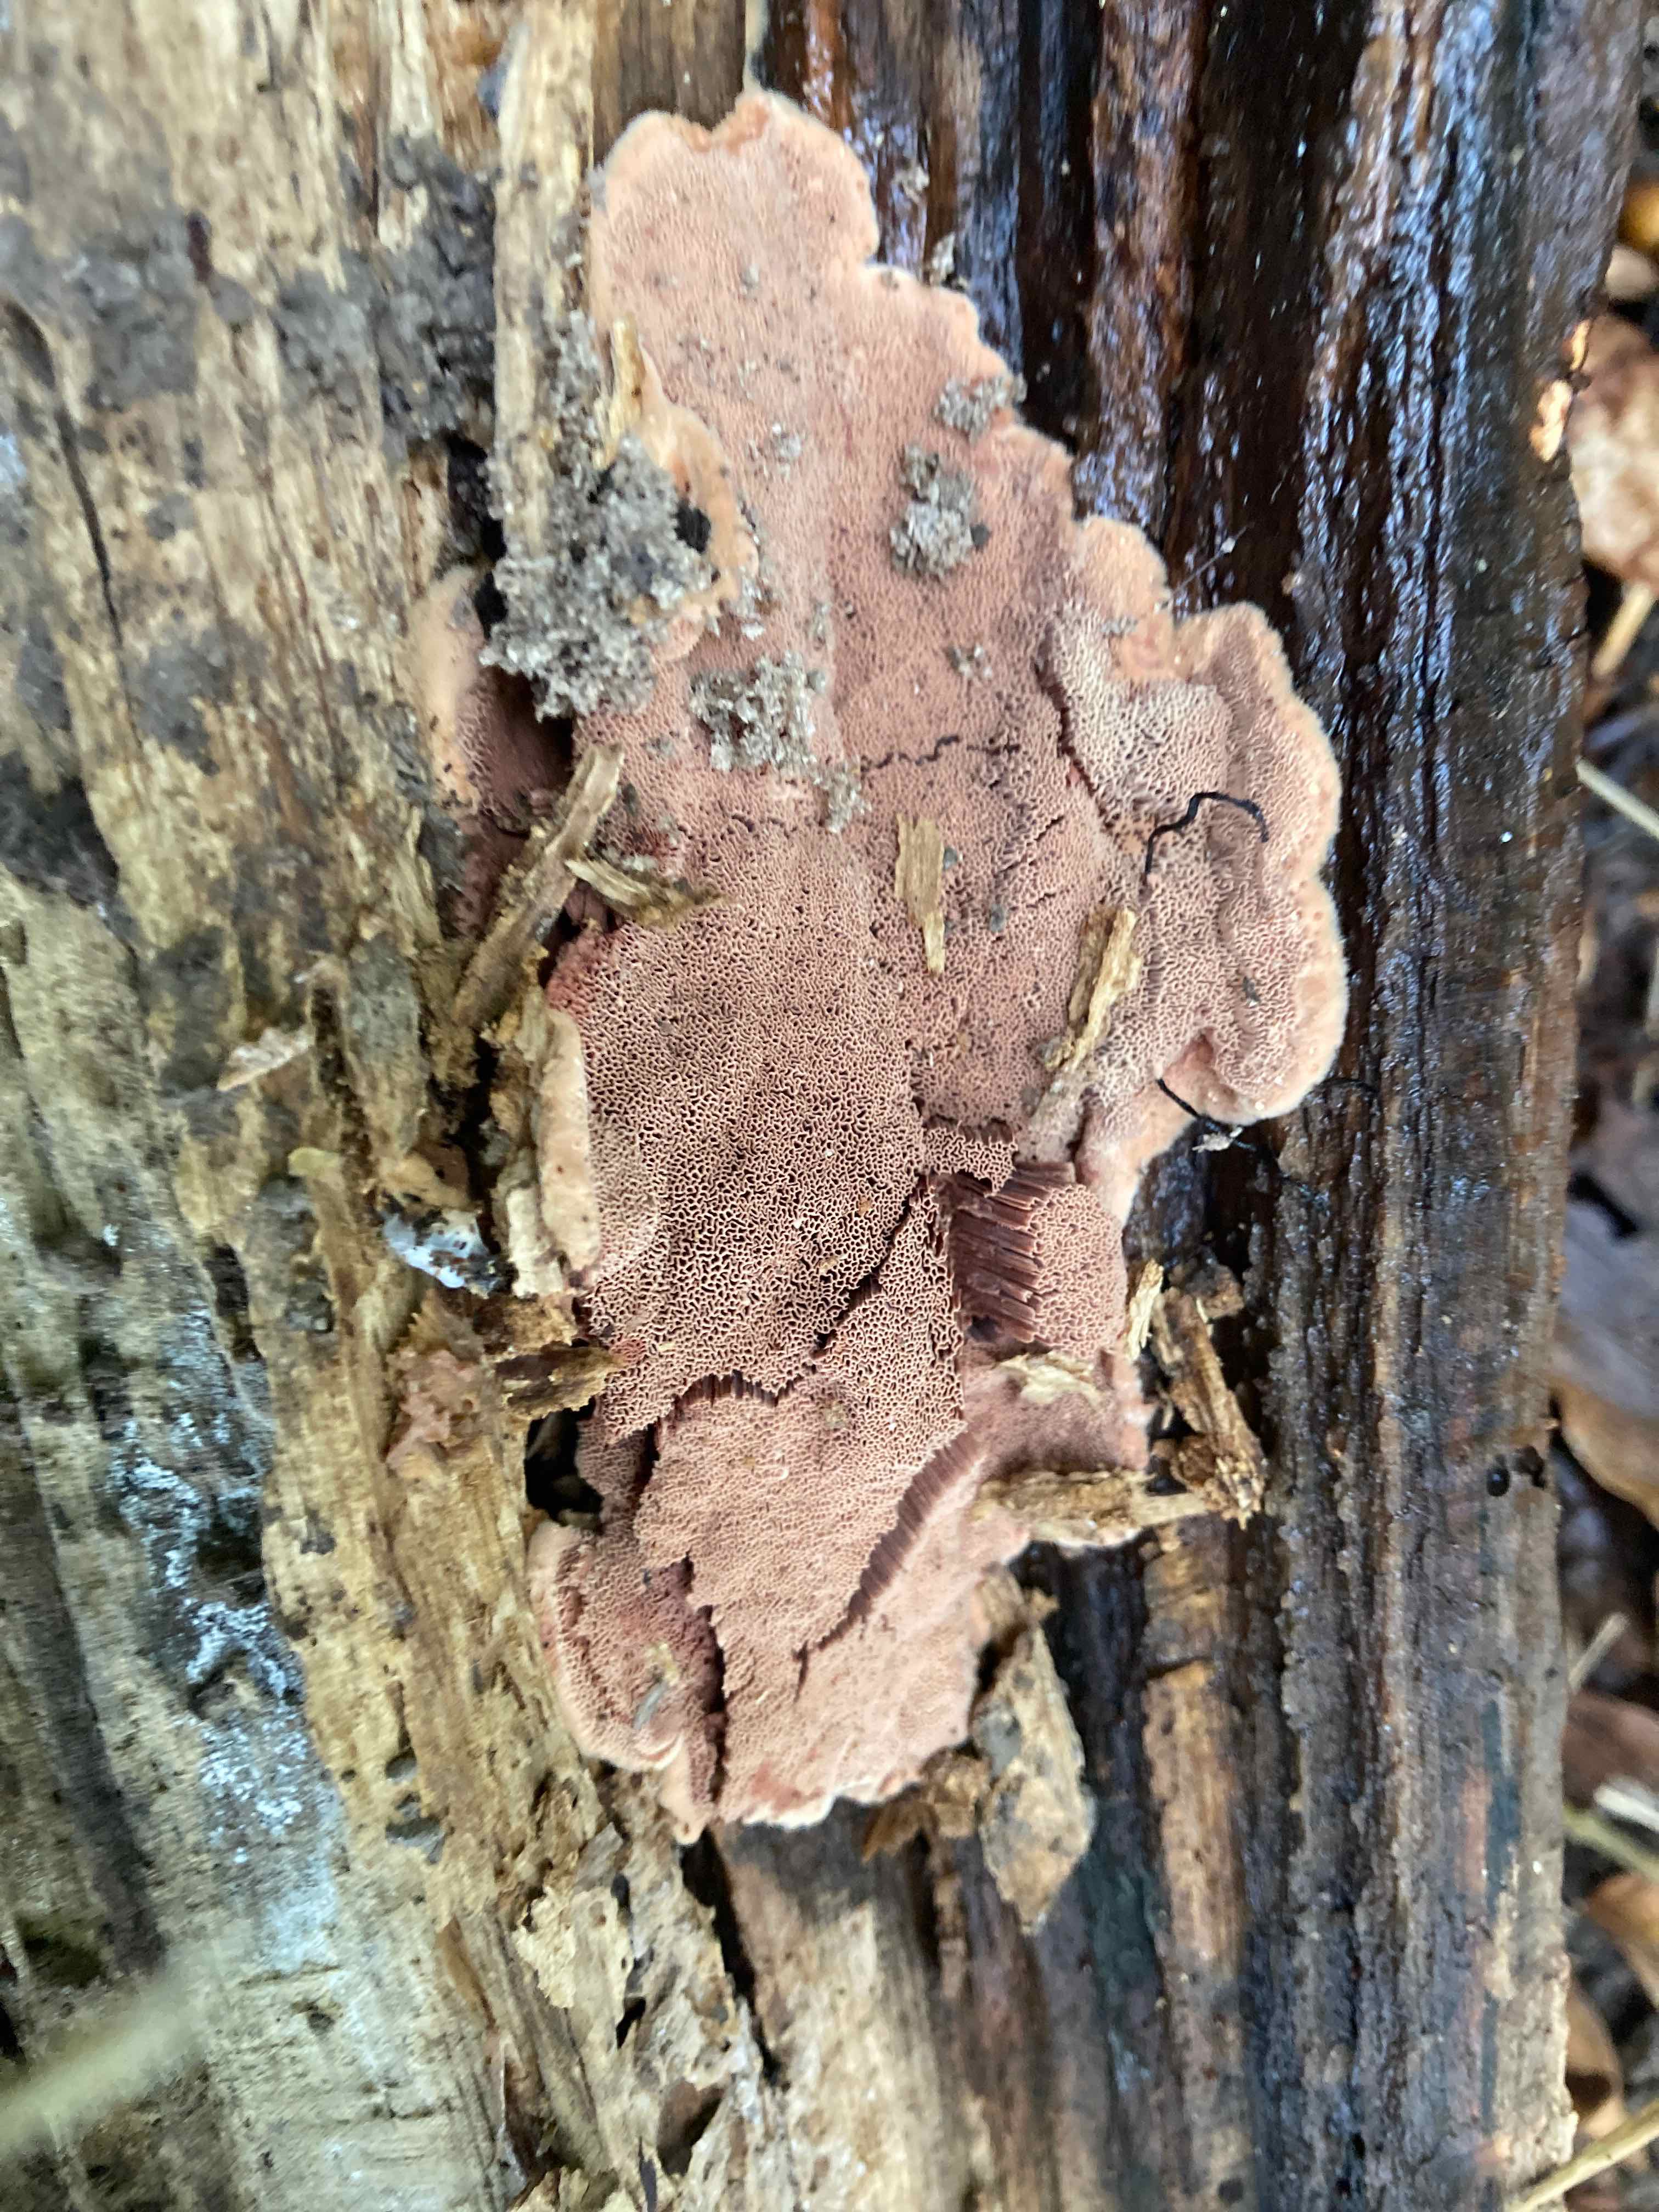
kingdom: Fungi
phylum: Basidiomycota
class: Agaricomycetes
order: Polyporales
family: Phanerochaetaceae
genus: Hapalopilus
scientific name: Hapalopilus rutilans
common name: rødlig okkerporesvamp
